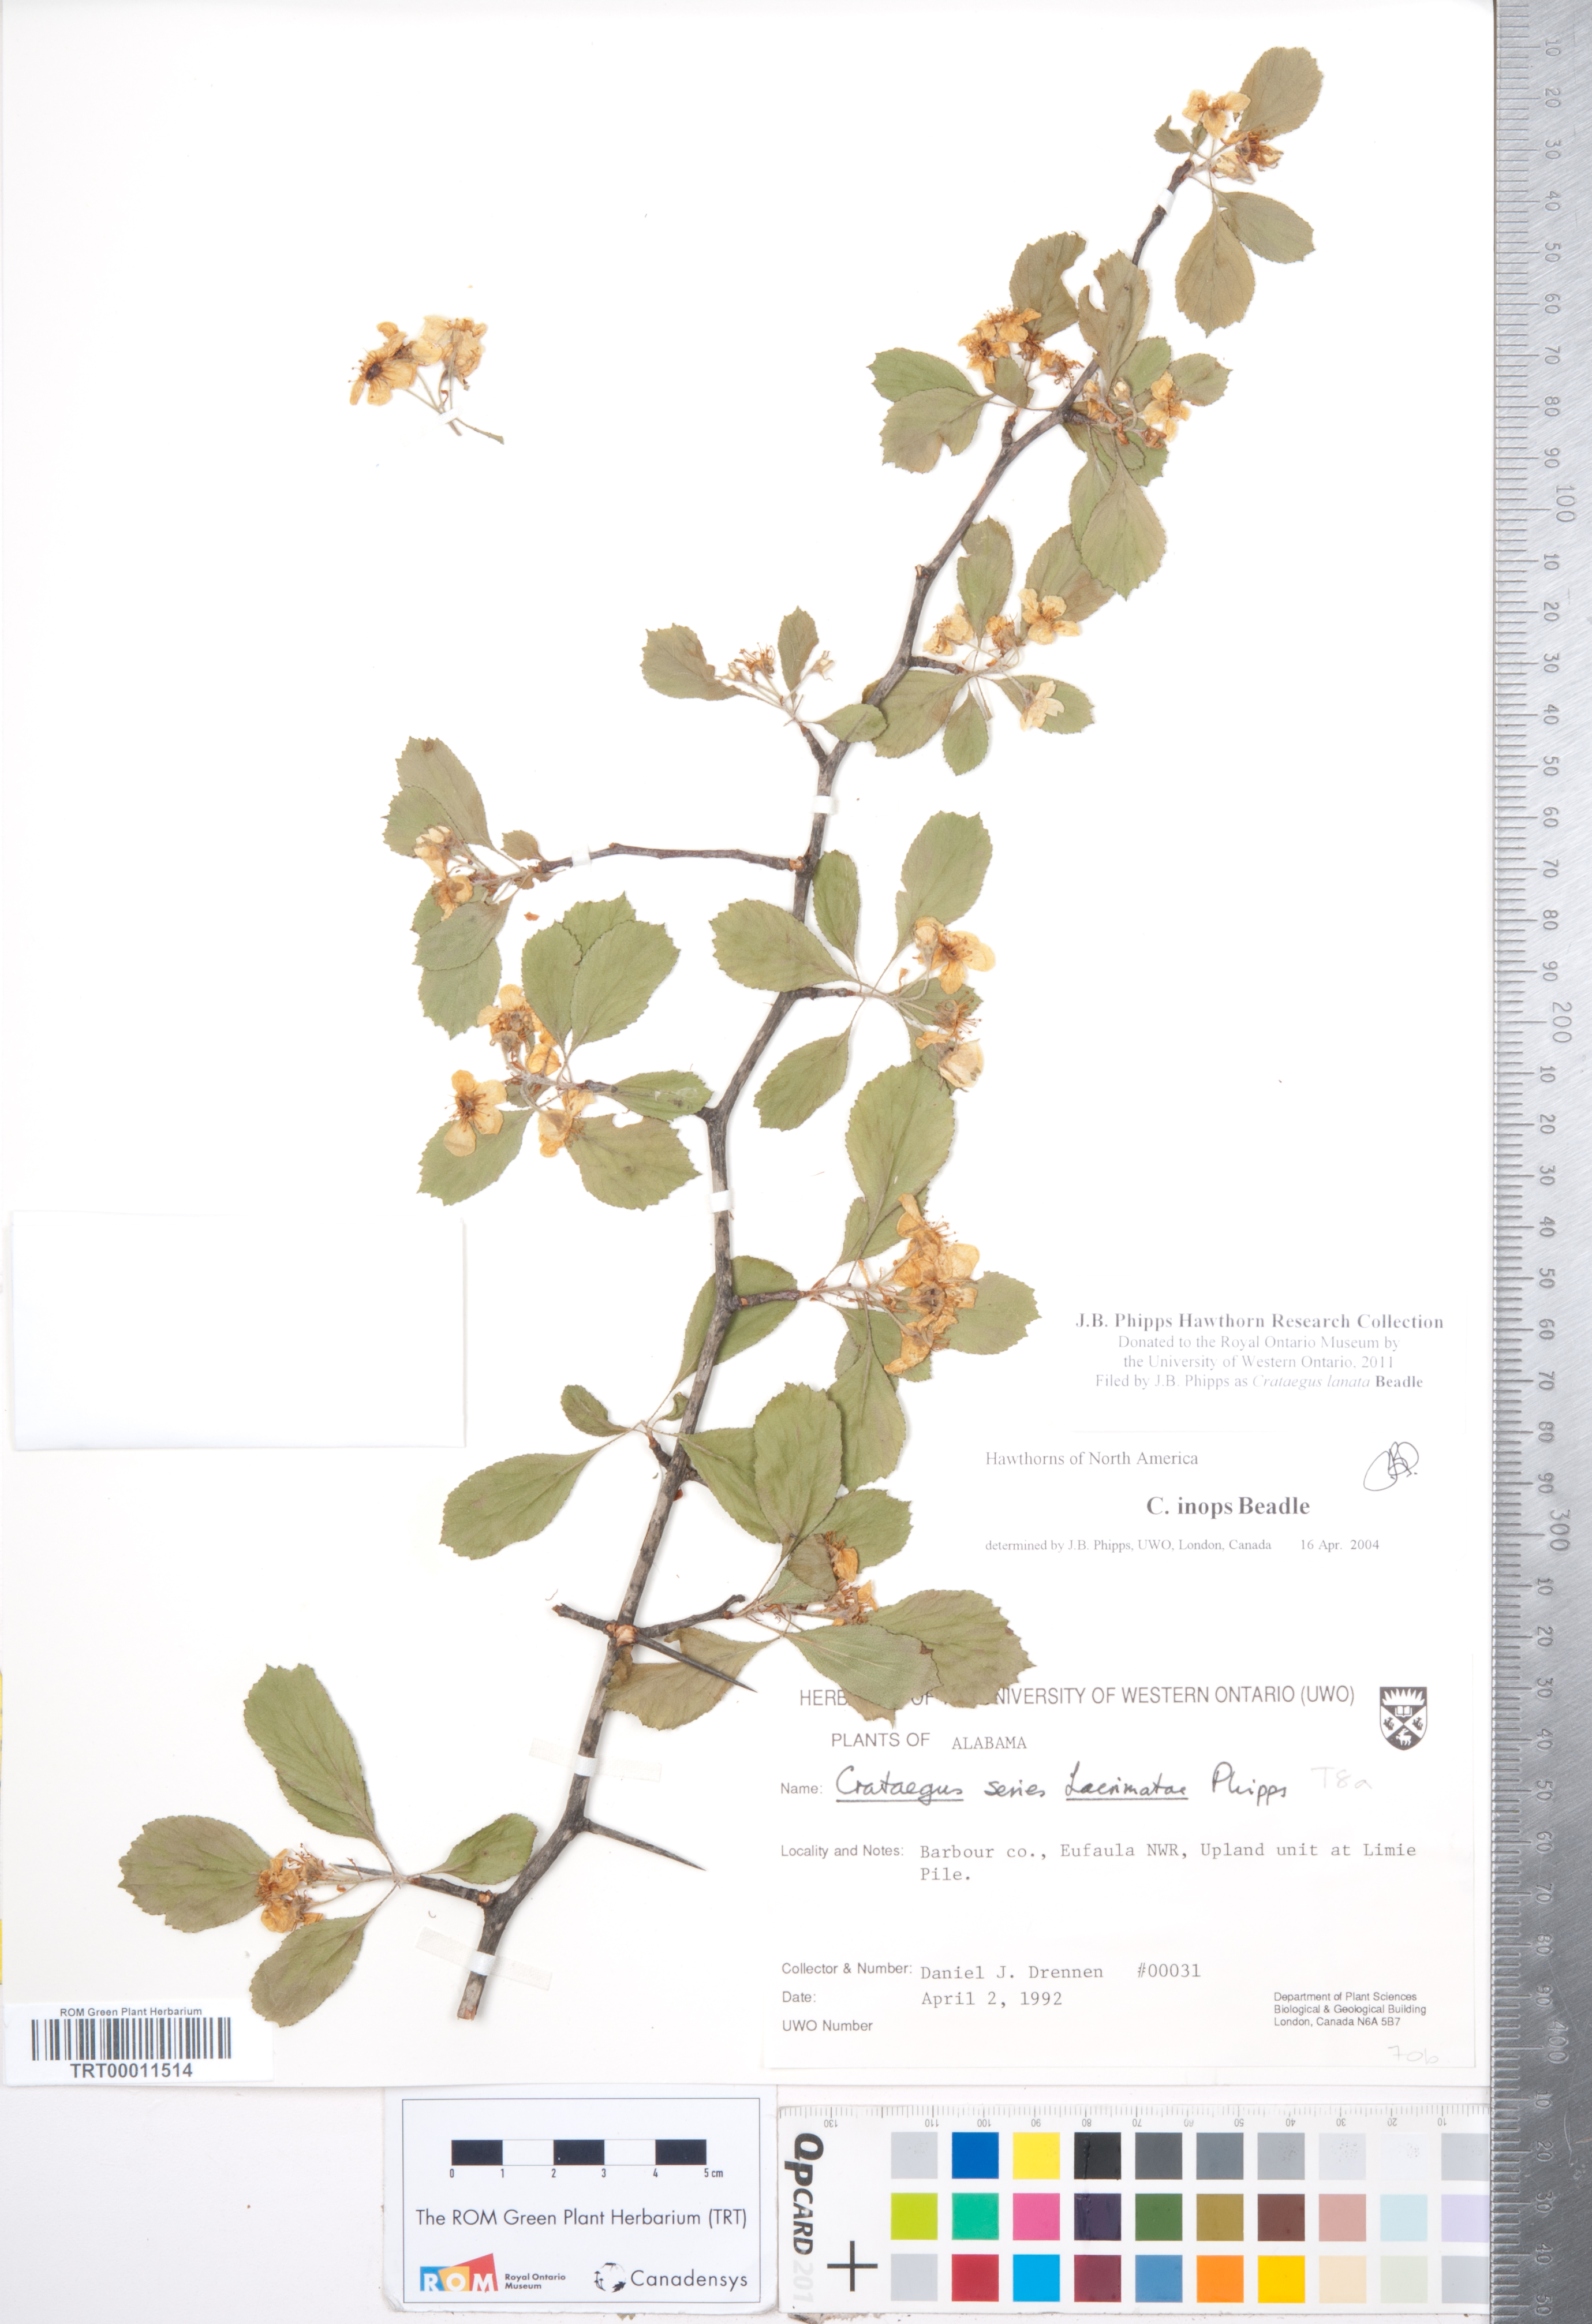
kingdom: Plantae
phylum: Tracheophyta
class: Magnoliopsida
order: Rosales
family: Rosaceae
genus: Crataegus
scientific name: Crataegus lassa
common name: Florida hawthorn
